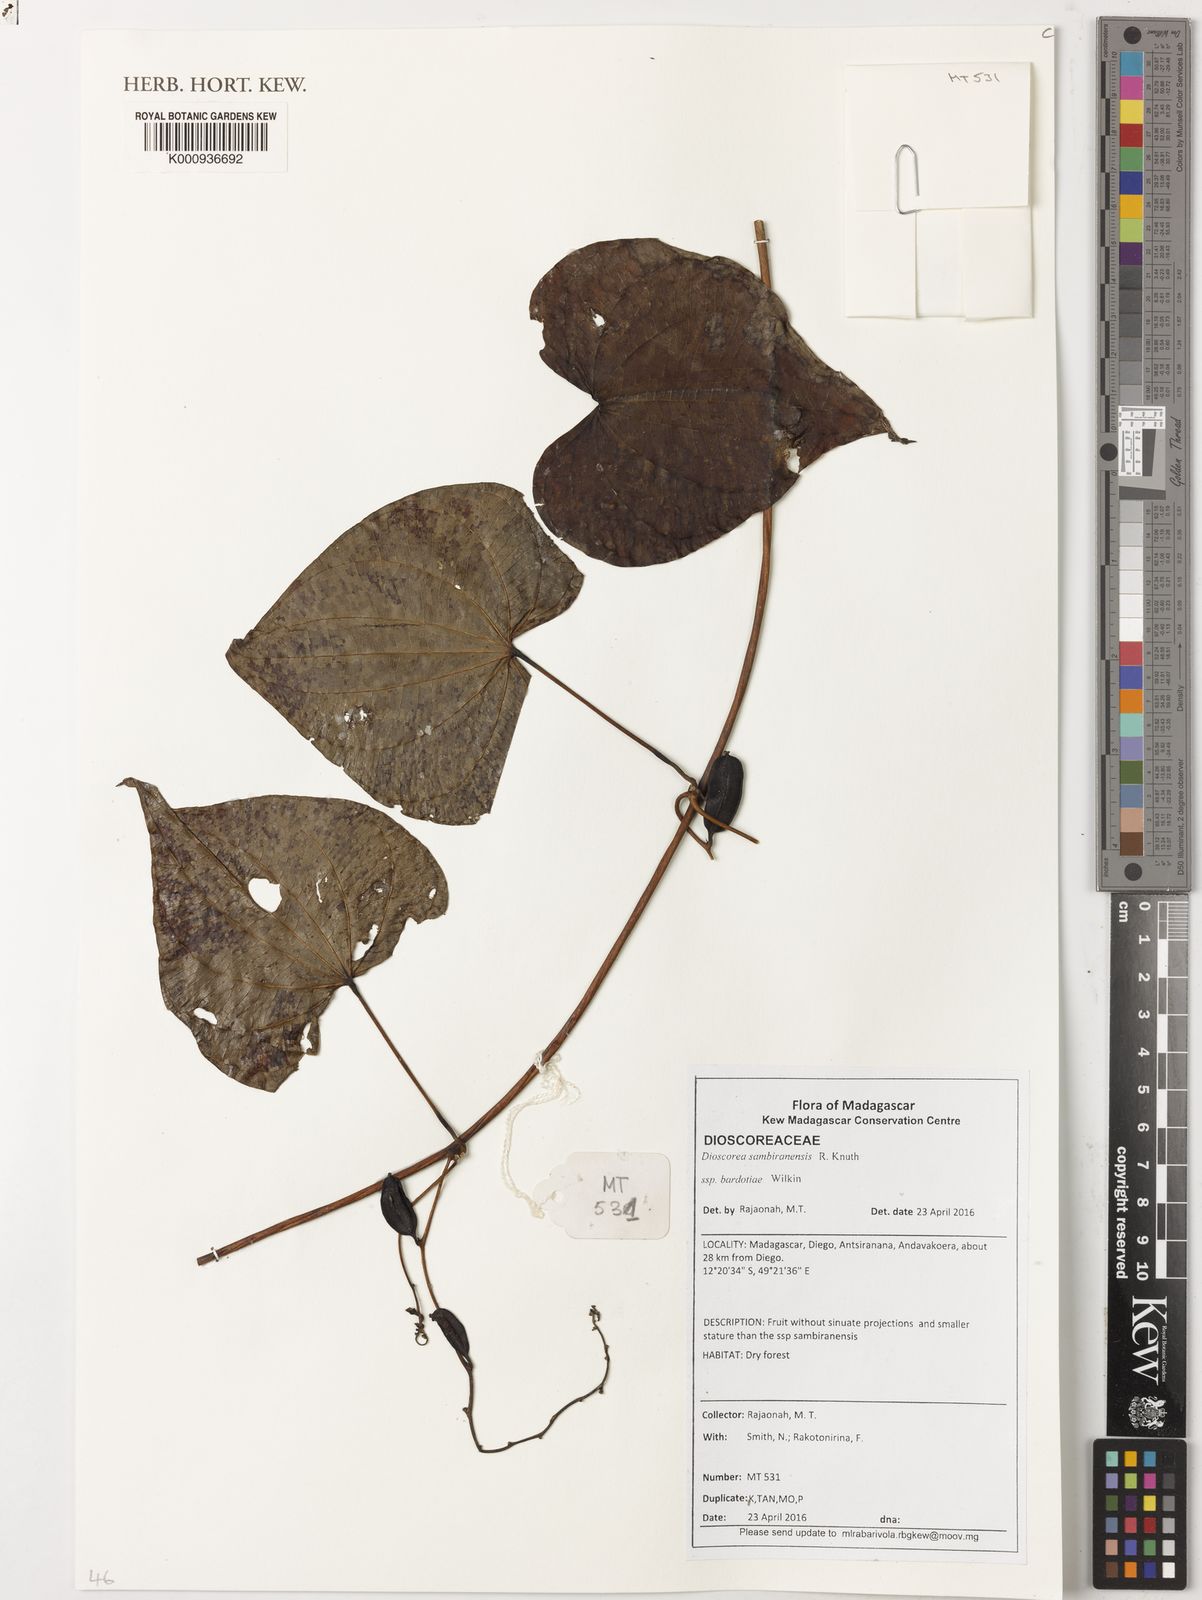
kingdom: Plantae
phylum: Tracheophyta
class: Liliopsida
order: Dioscoreales
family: Dioscoreaceae
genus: Dioscorea
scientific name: Dioscorea sansibarensis
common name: Zanzibar yam
